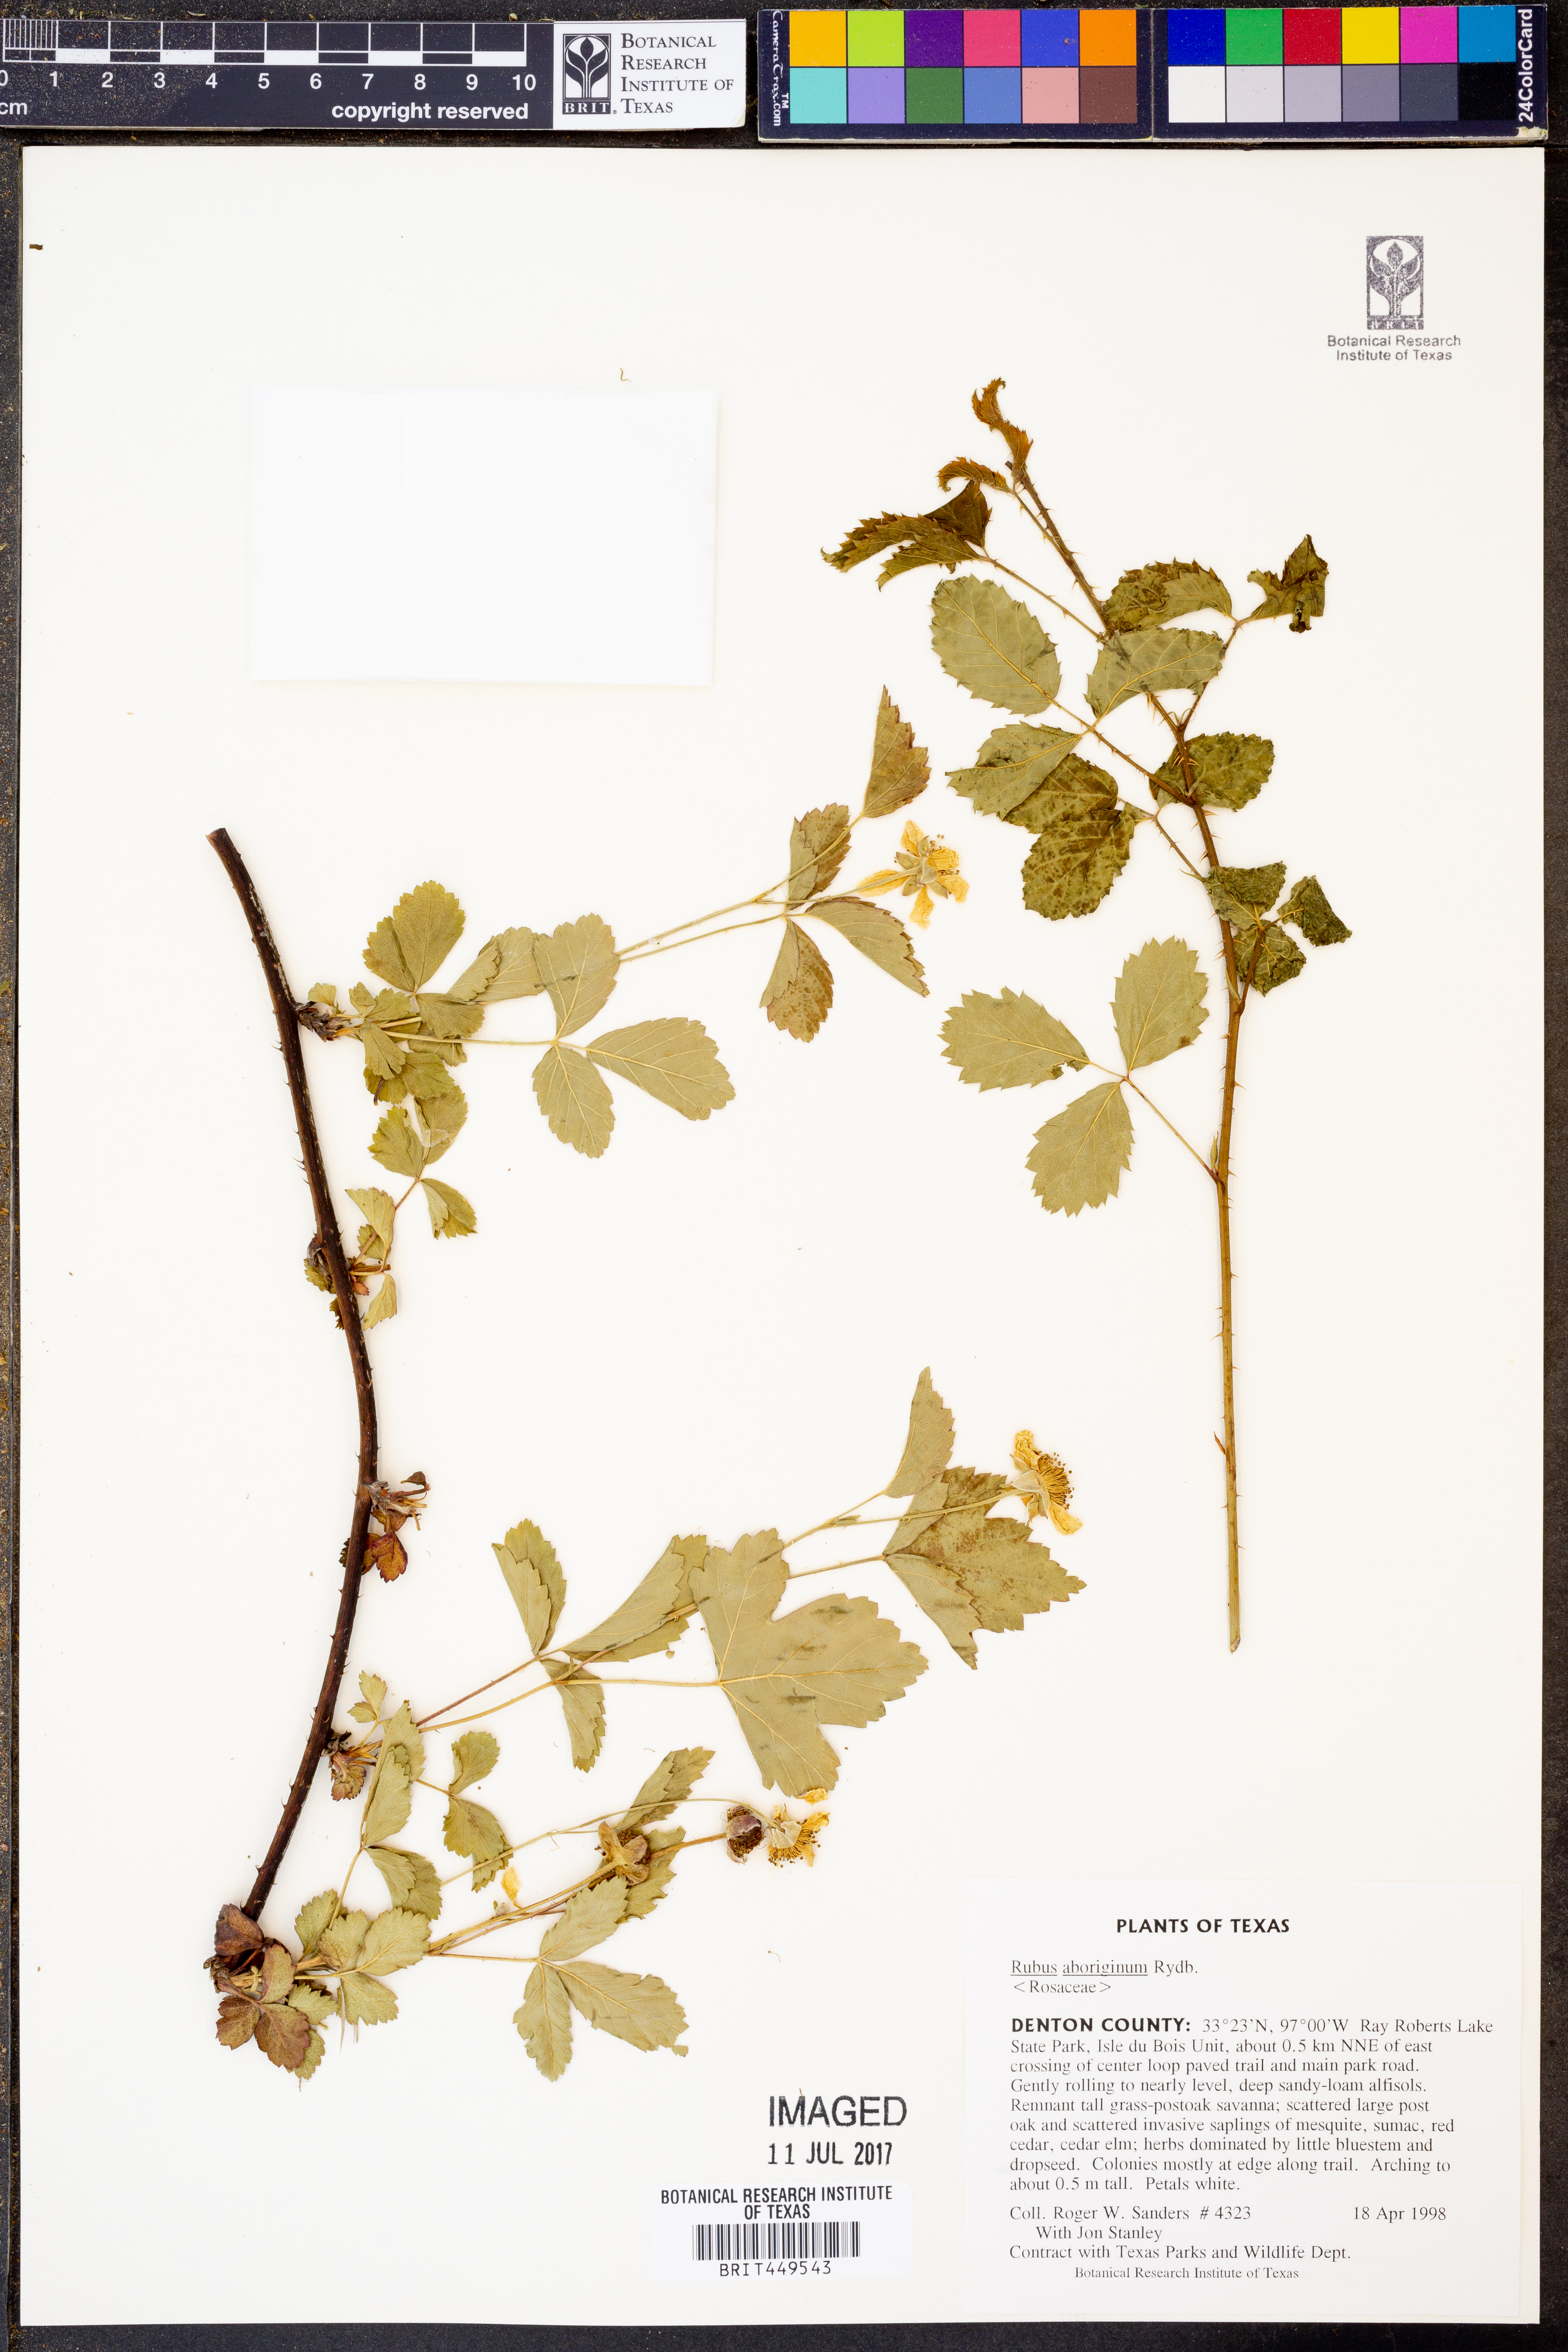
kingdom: Plantae
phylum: Tracheophyta
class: Magnoliopsida
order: Rosales
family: Rosaceae
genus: Rubus
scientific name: Rubus aboriginum
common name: Mayes dewberry
